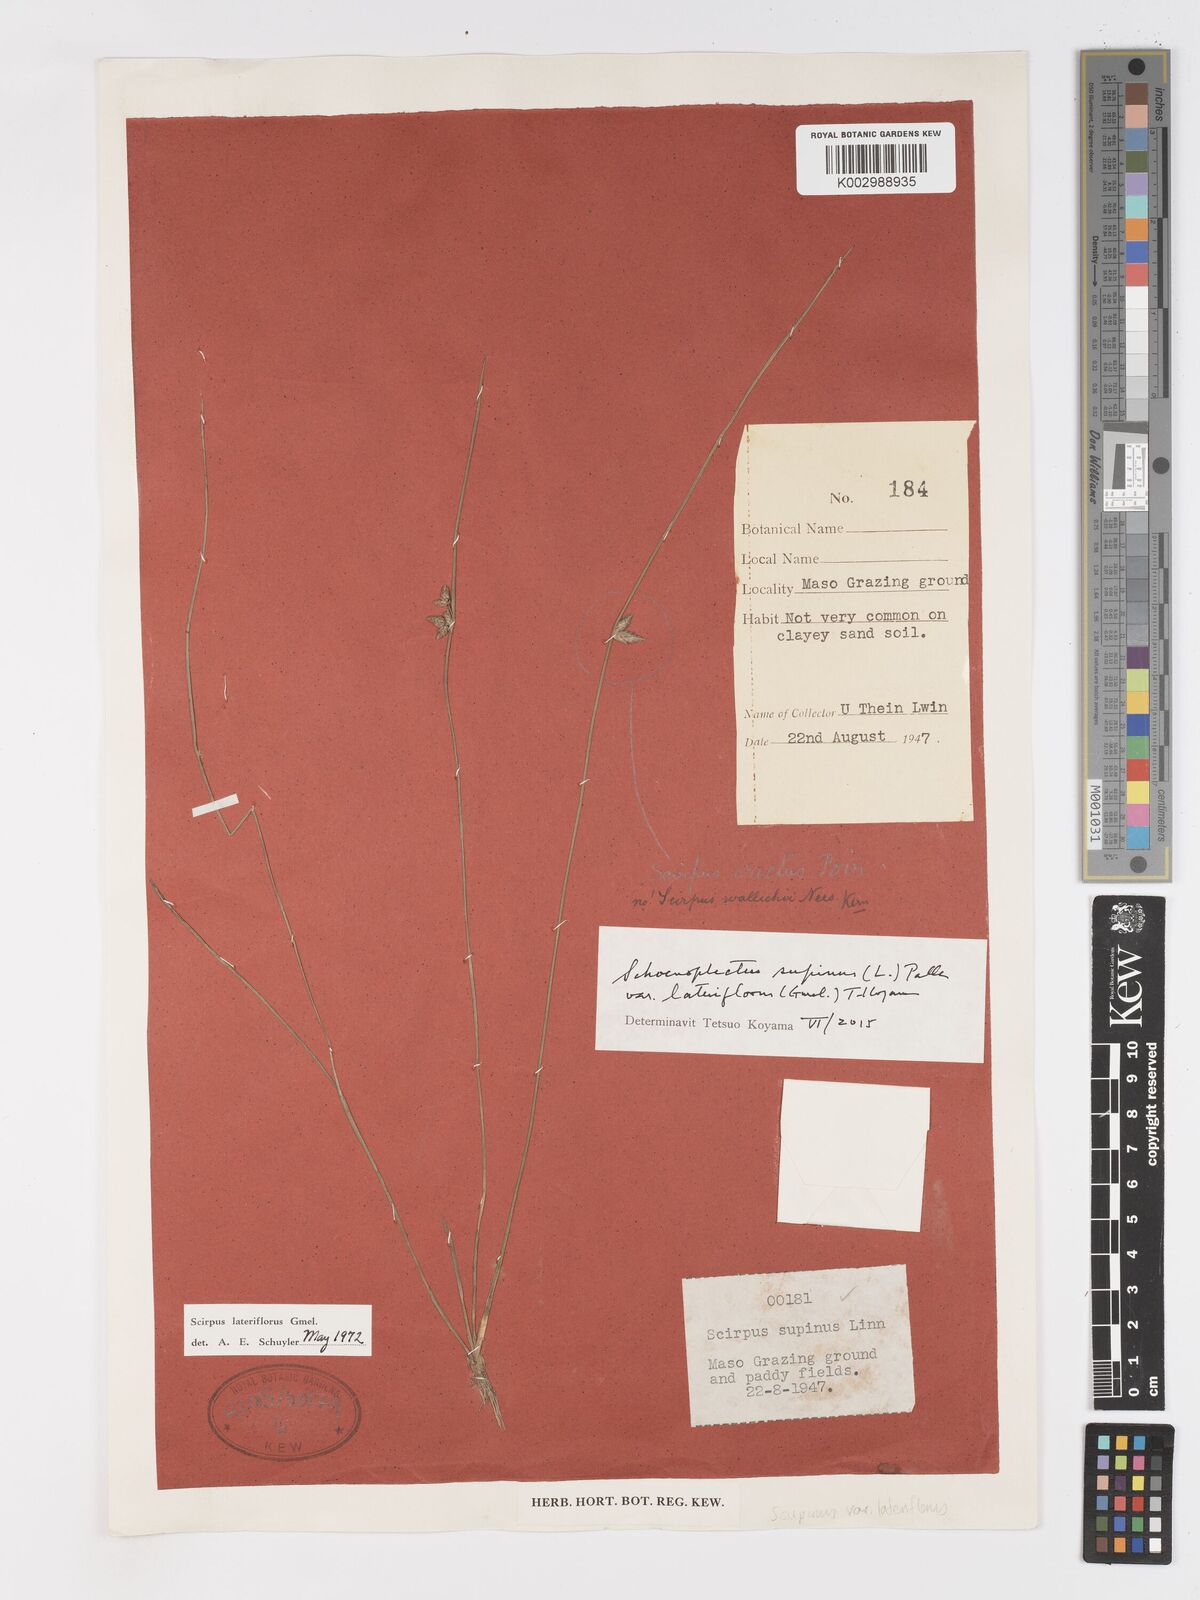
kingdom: Plantae
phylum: Tracheophyta
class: Liliopsida
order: Poales
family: Cyperaceae
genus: Schoenoplectiella
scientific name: Schoenoplectiella lateriflora
